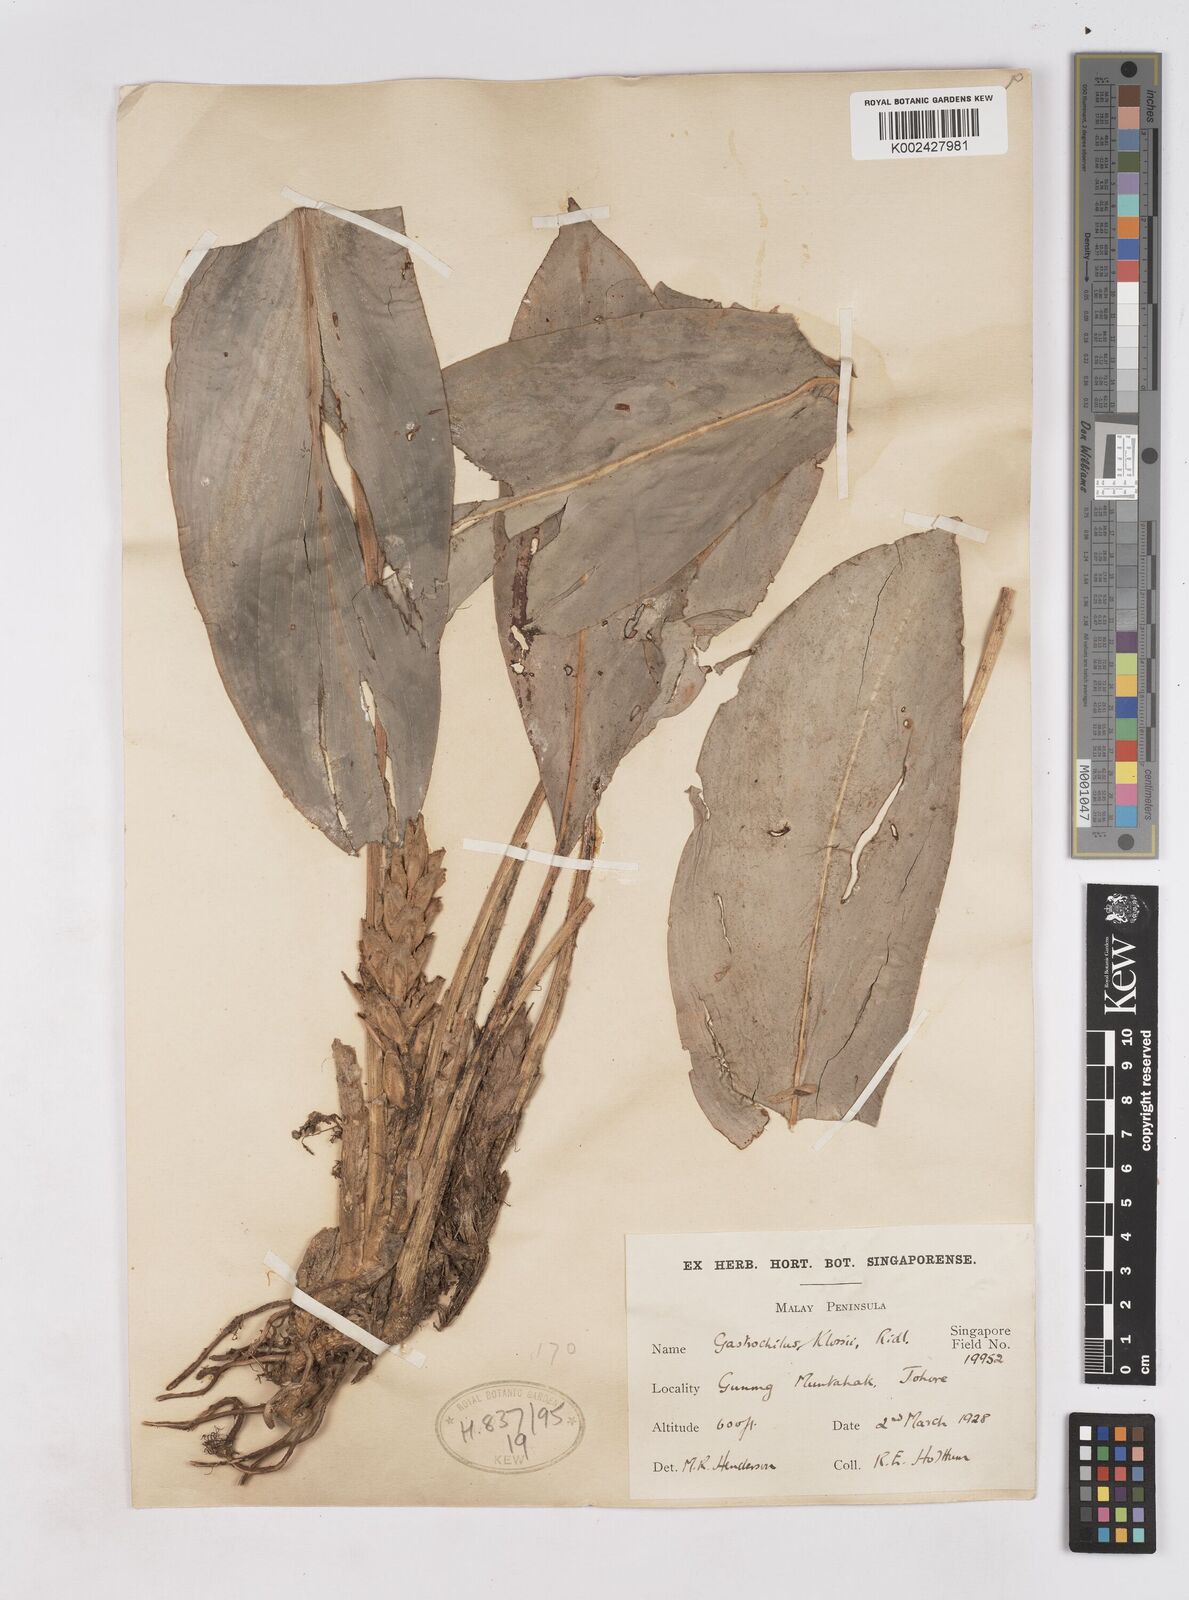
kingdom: Plantae
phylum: Tracheophyta
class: Liliopsida
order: Zingiberales
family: Zingiberaceae
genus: Scaphochlamys
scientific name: Scaphochlamys klossii
